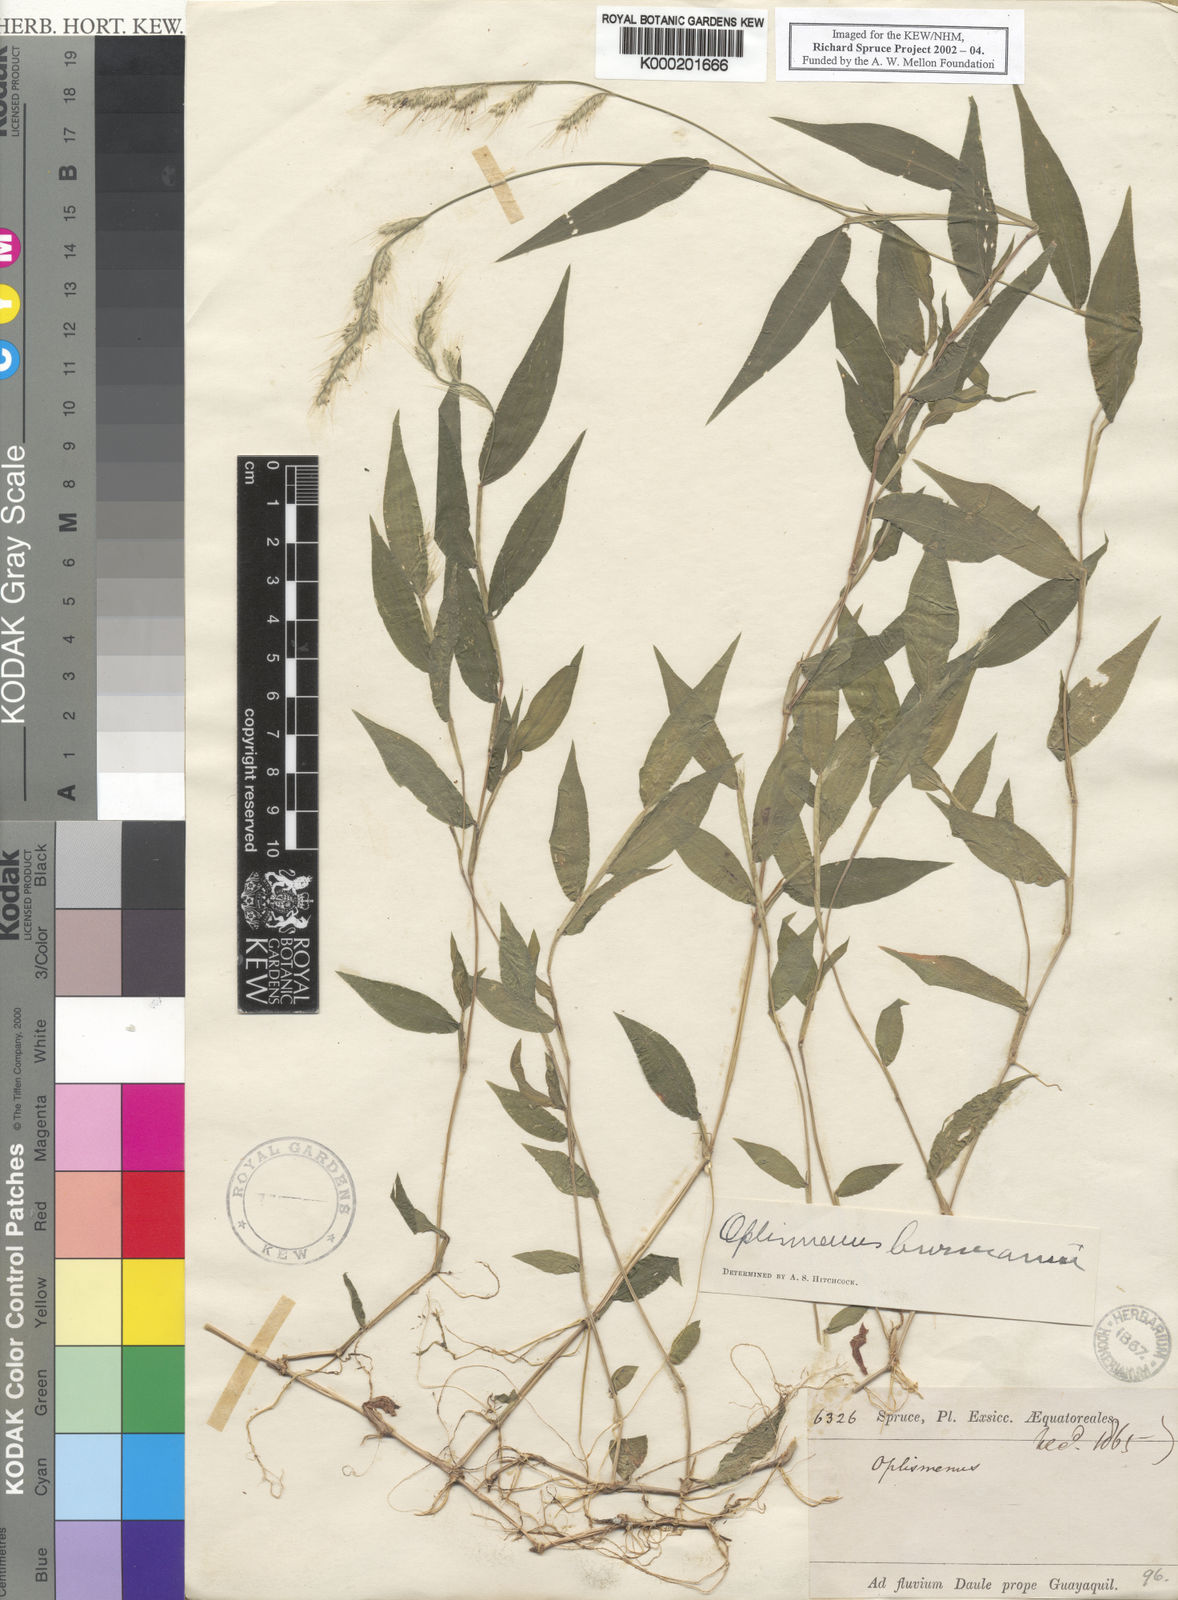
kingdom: Plantae
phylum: Tracheophyta
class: Liliopsida
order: Poales
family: Poaceae
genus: Oplismenus
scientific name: Oplismenus burmanni
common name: Burmann's basketgrass
